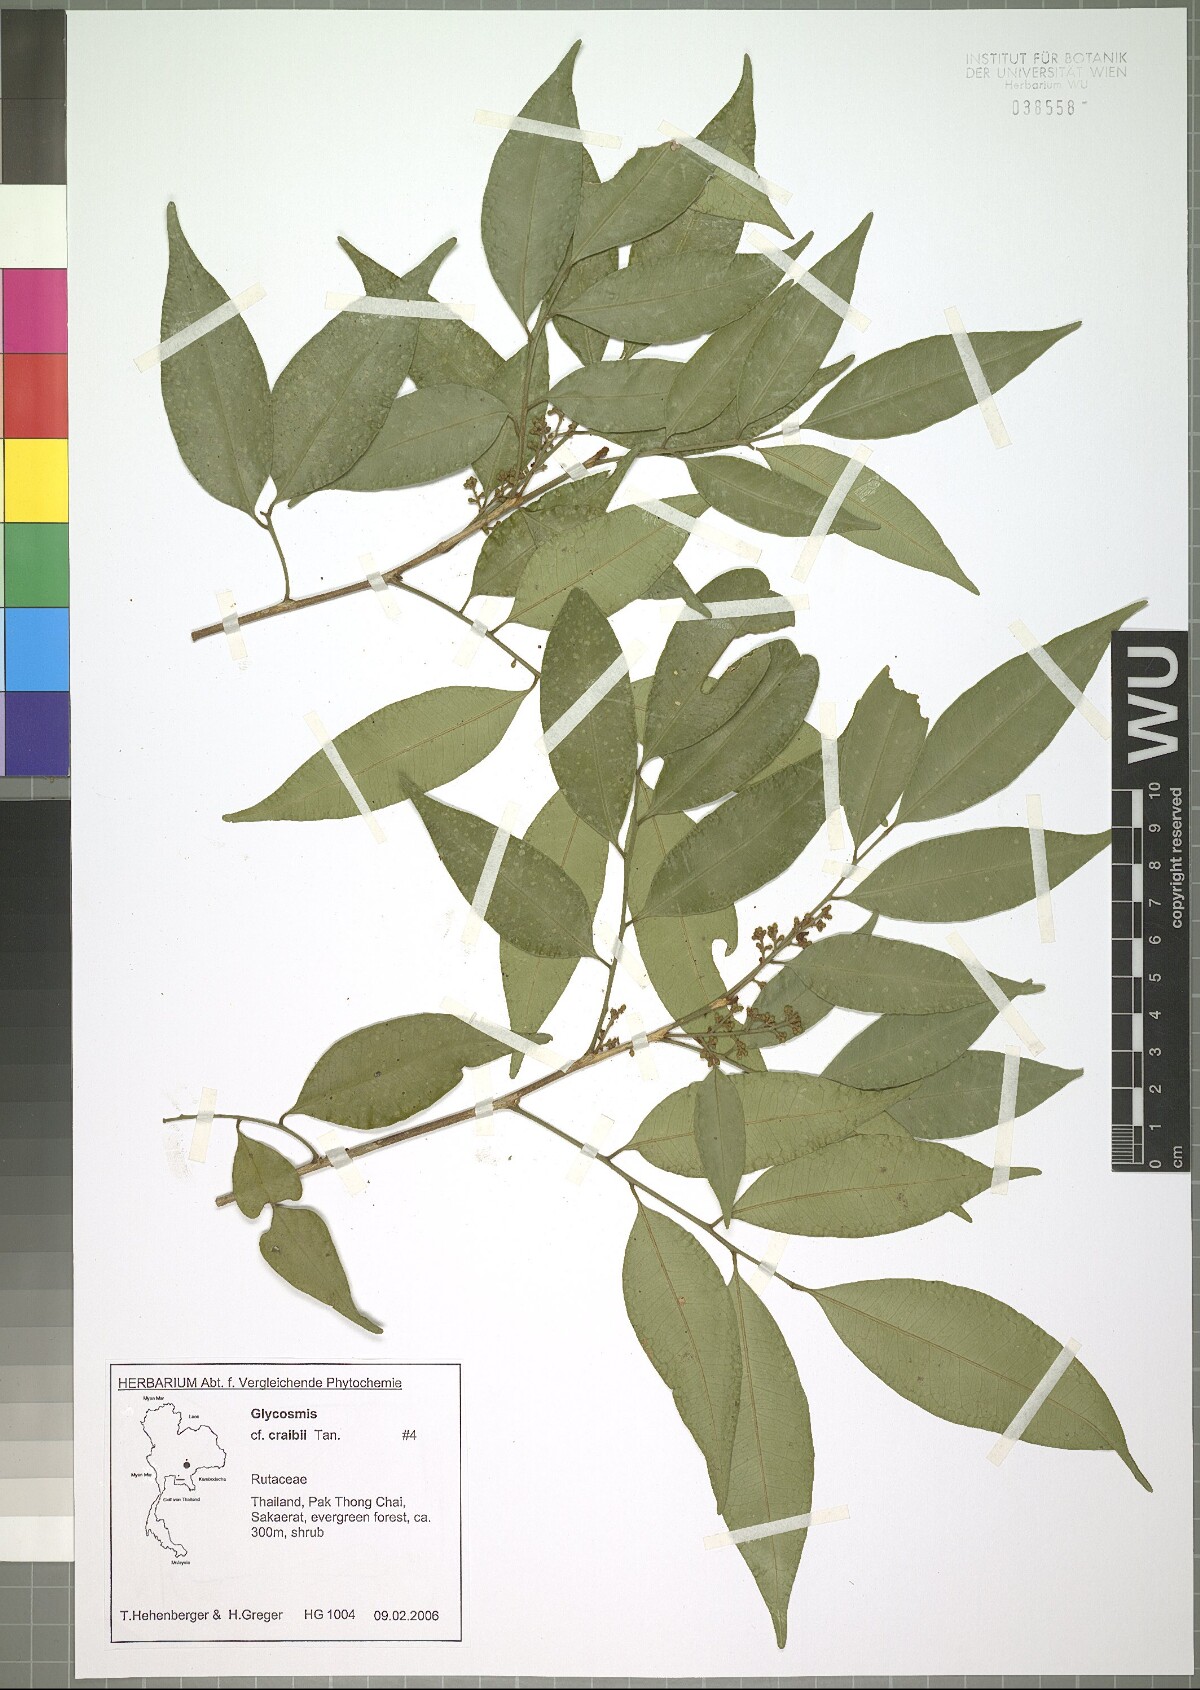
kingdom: Plantae
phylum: Tracheophyta
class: Magnoliopsida
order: Sapindales
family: Rutaceae
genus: Glycosmis
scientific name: Glycosmis craibii
